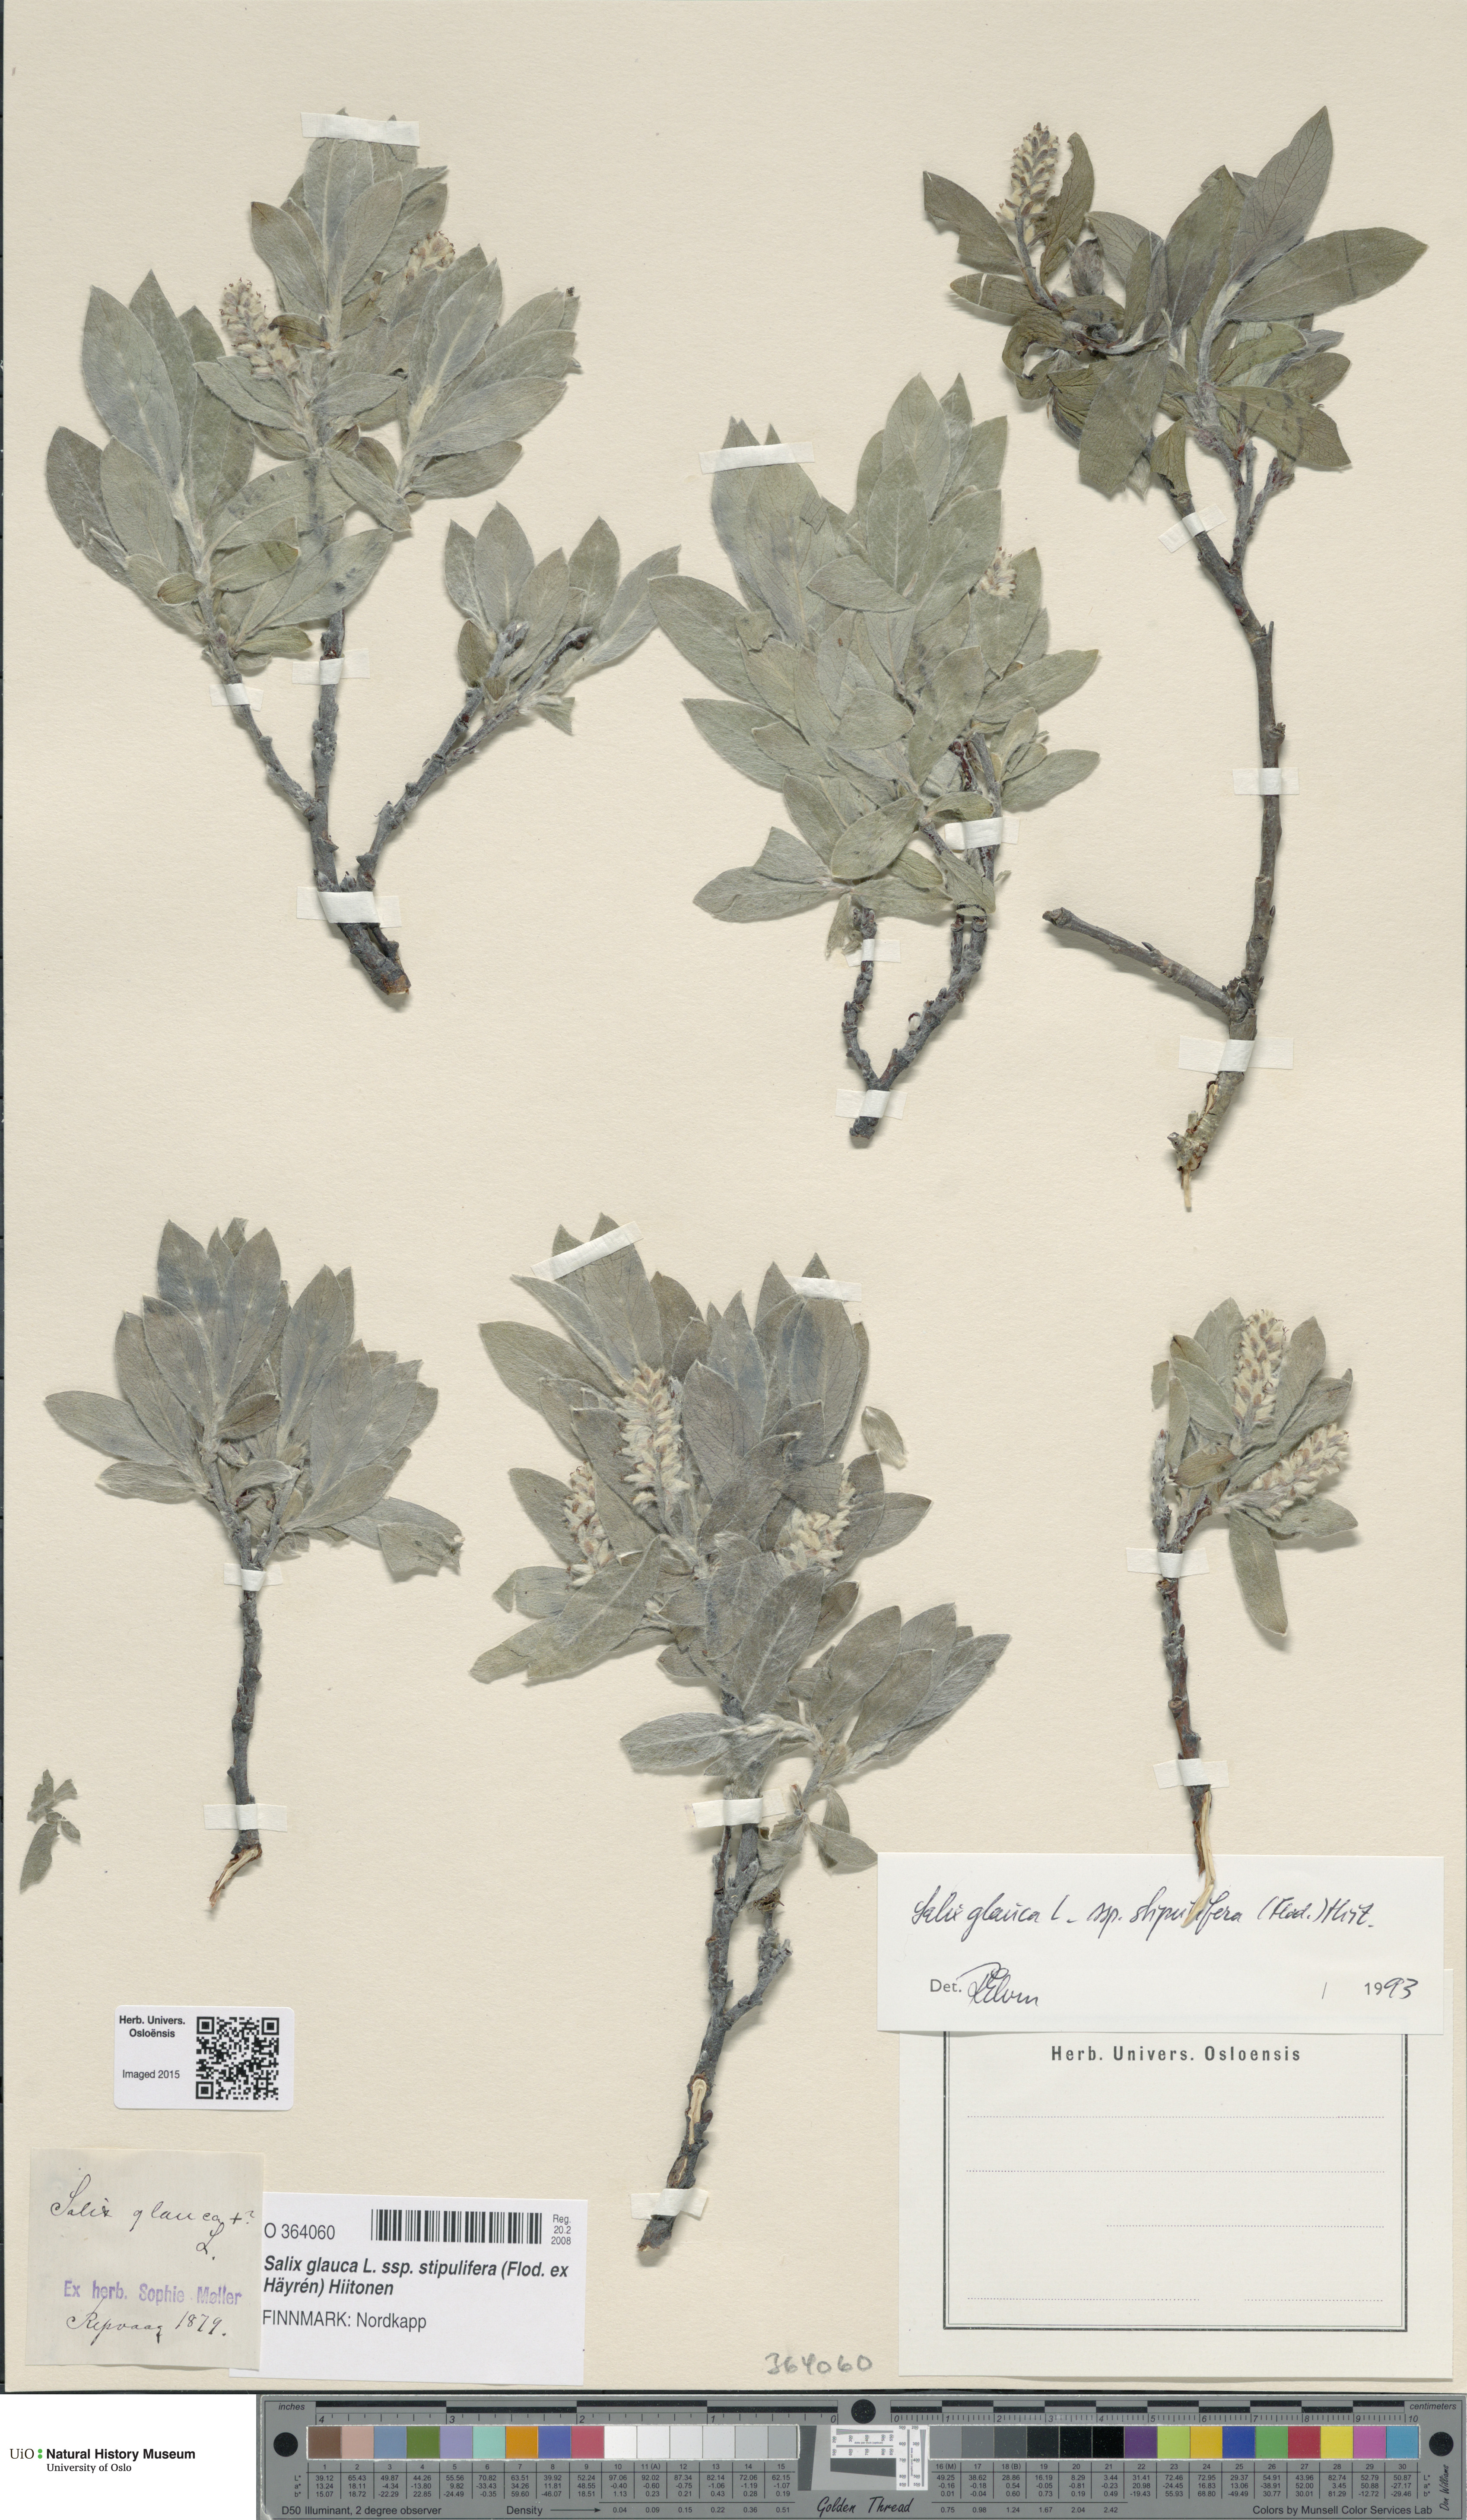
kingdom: Plantae
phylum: Tracheophyta
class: Magnoliopsida
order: Malpighiales
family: Salicaceae
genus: Salix
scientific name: Salix glauca
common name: Glaucous willow
